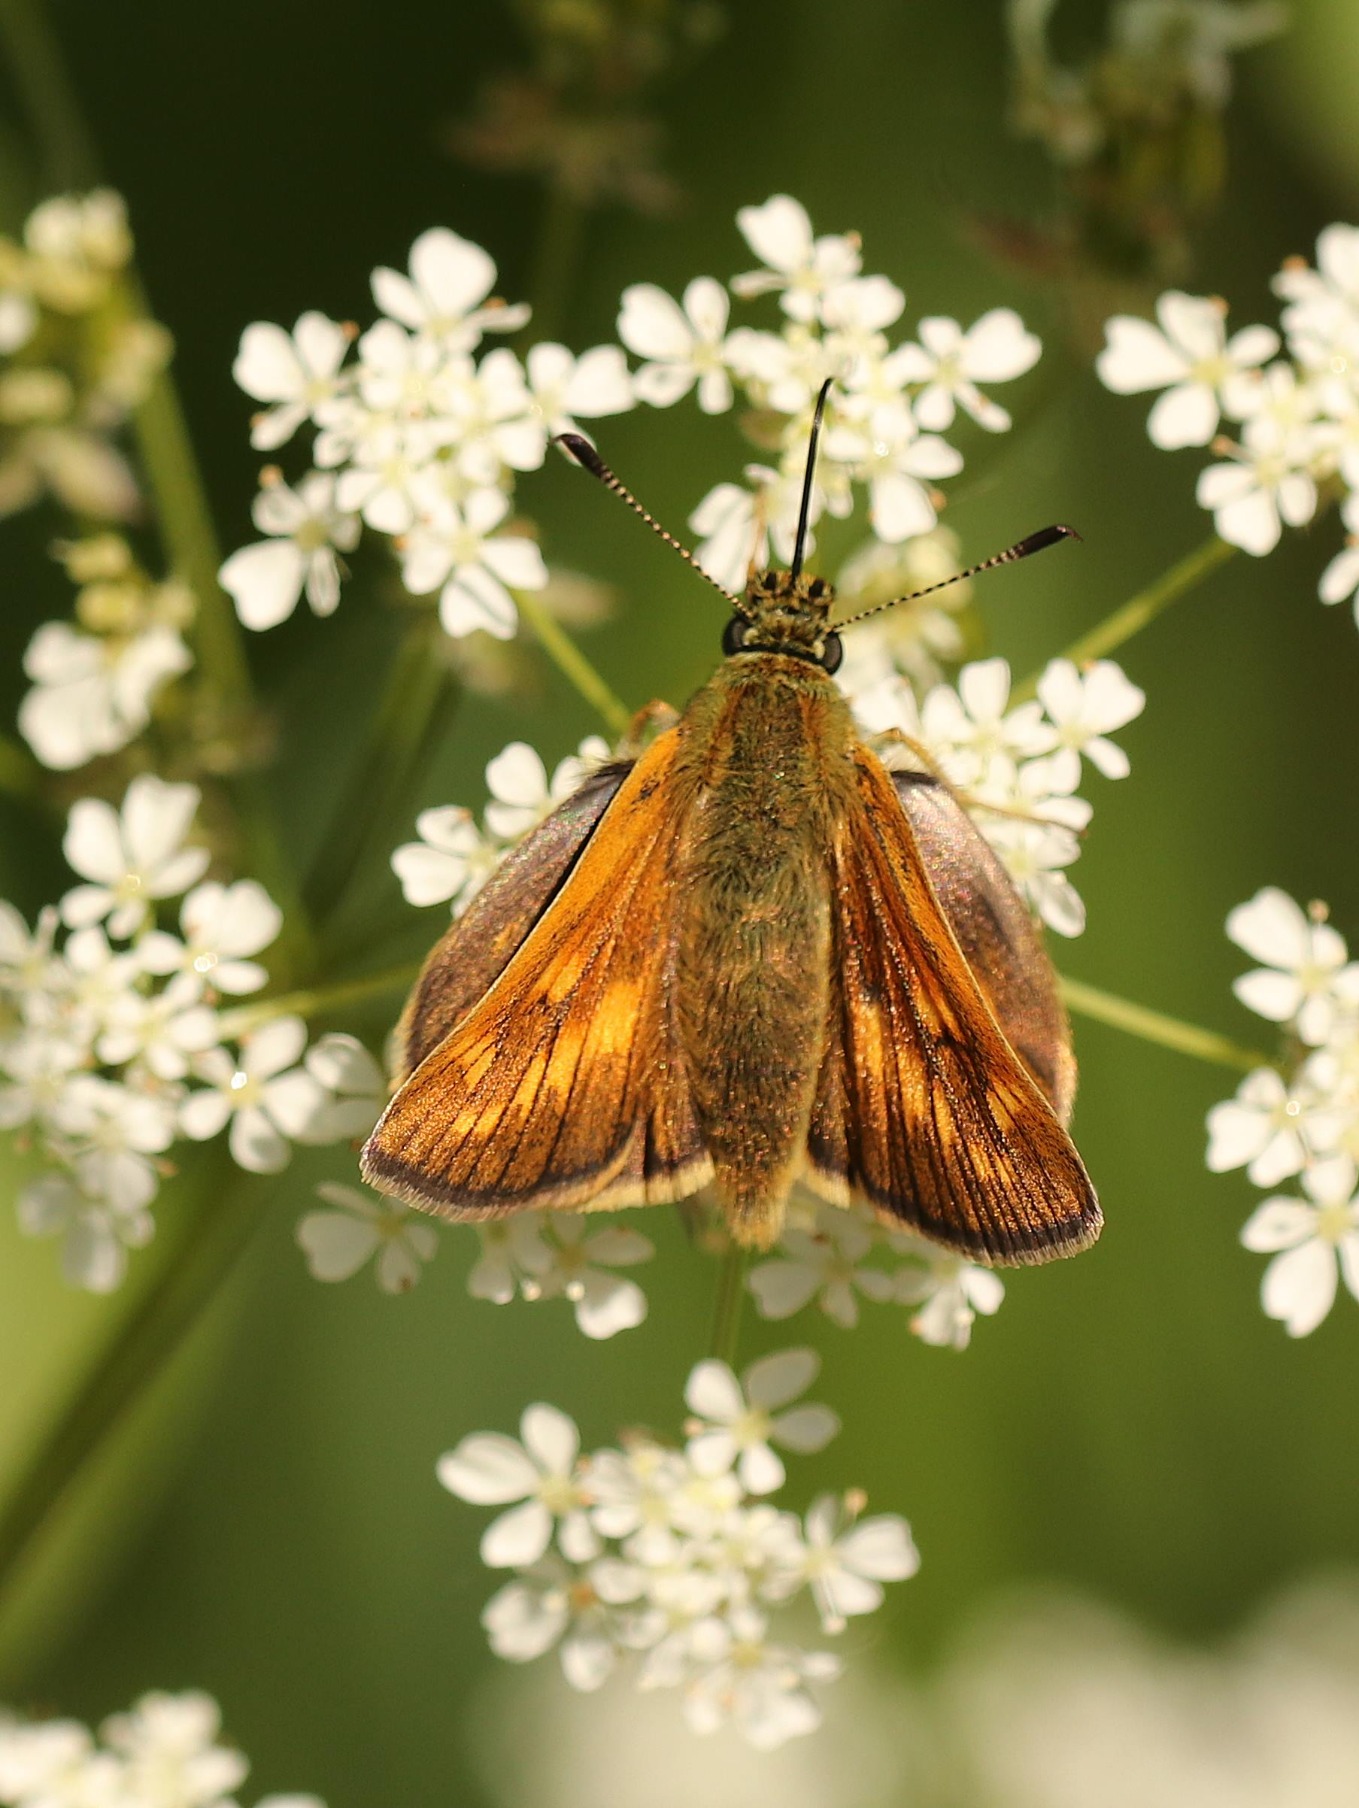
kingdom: Animalia
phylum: Arthropoda
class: Insecta
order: Lepidoptera
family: Hesperiidae
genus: Ochlodes
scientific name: Ochlodes venata
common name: Stor bredpande
